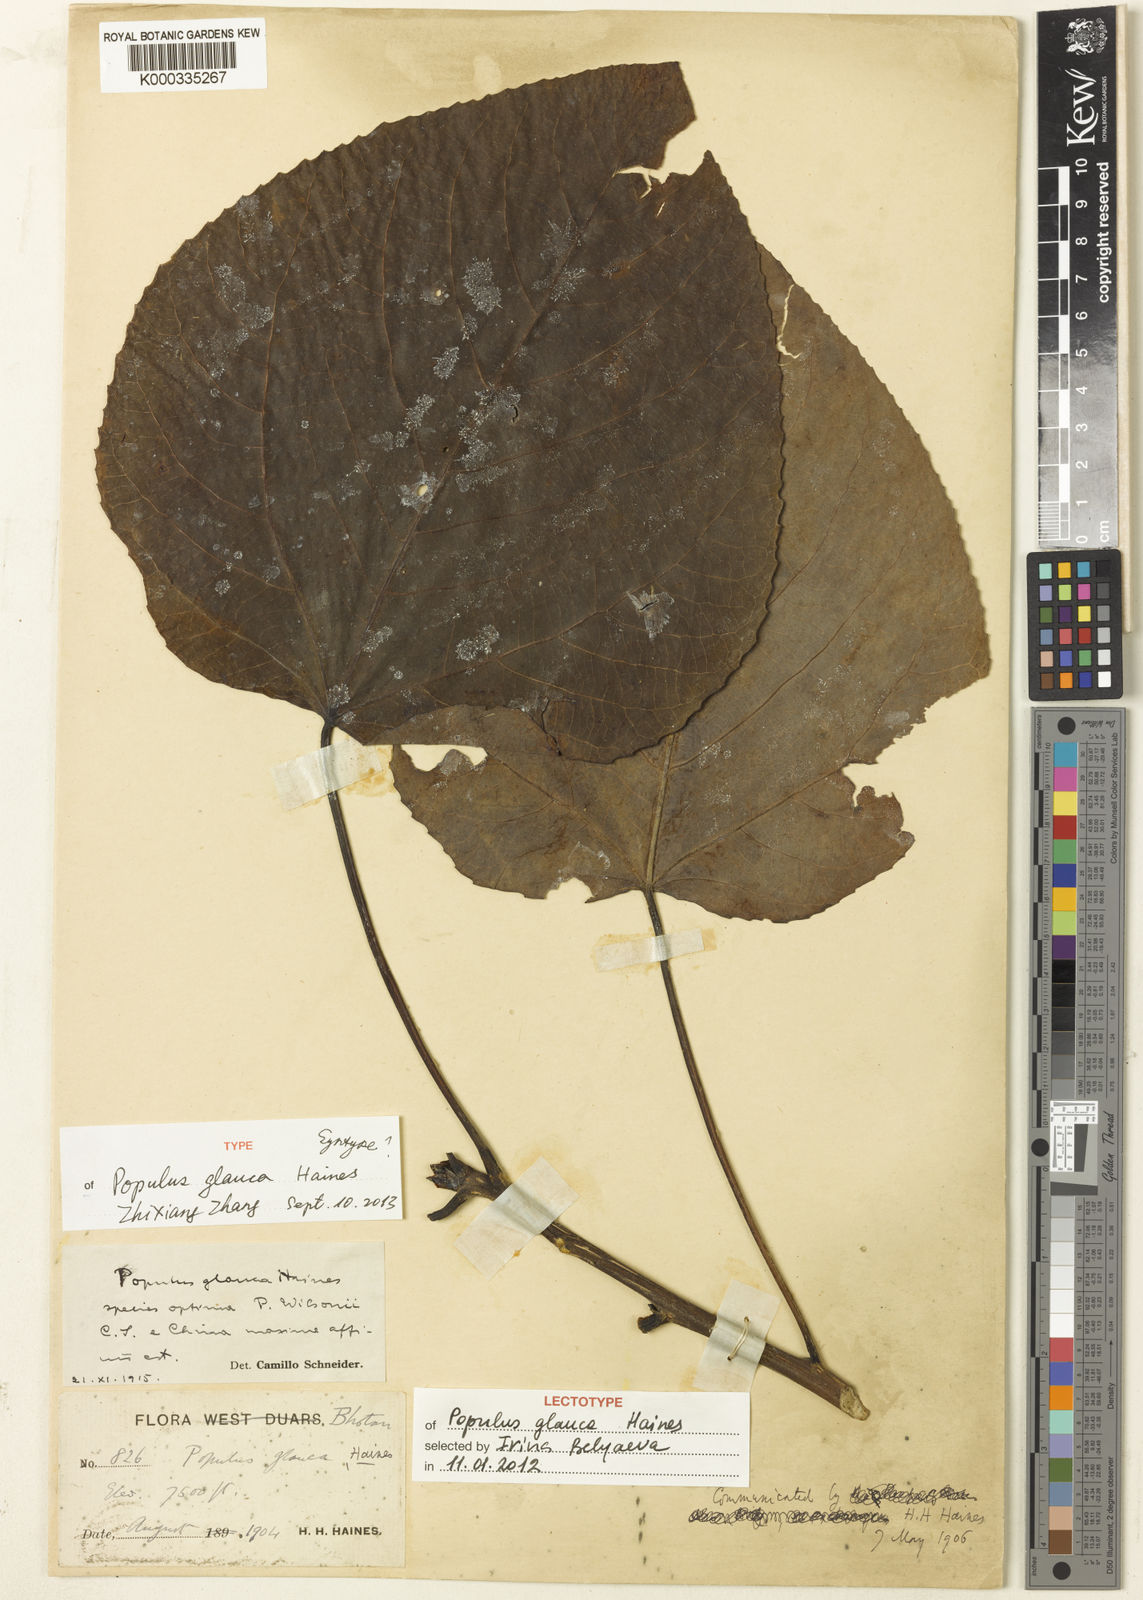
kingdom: Plantae
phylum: Tracheophyta
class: Magnoliopsida
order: Malpighiales
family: Salicaceae
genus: Populus
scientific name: Populus glauca
